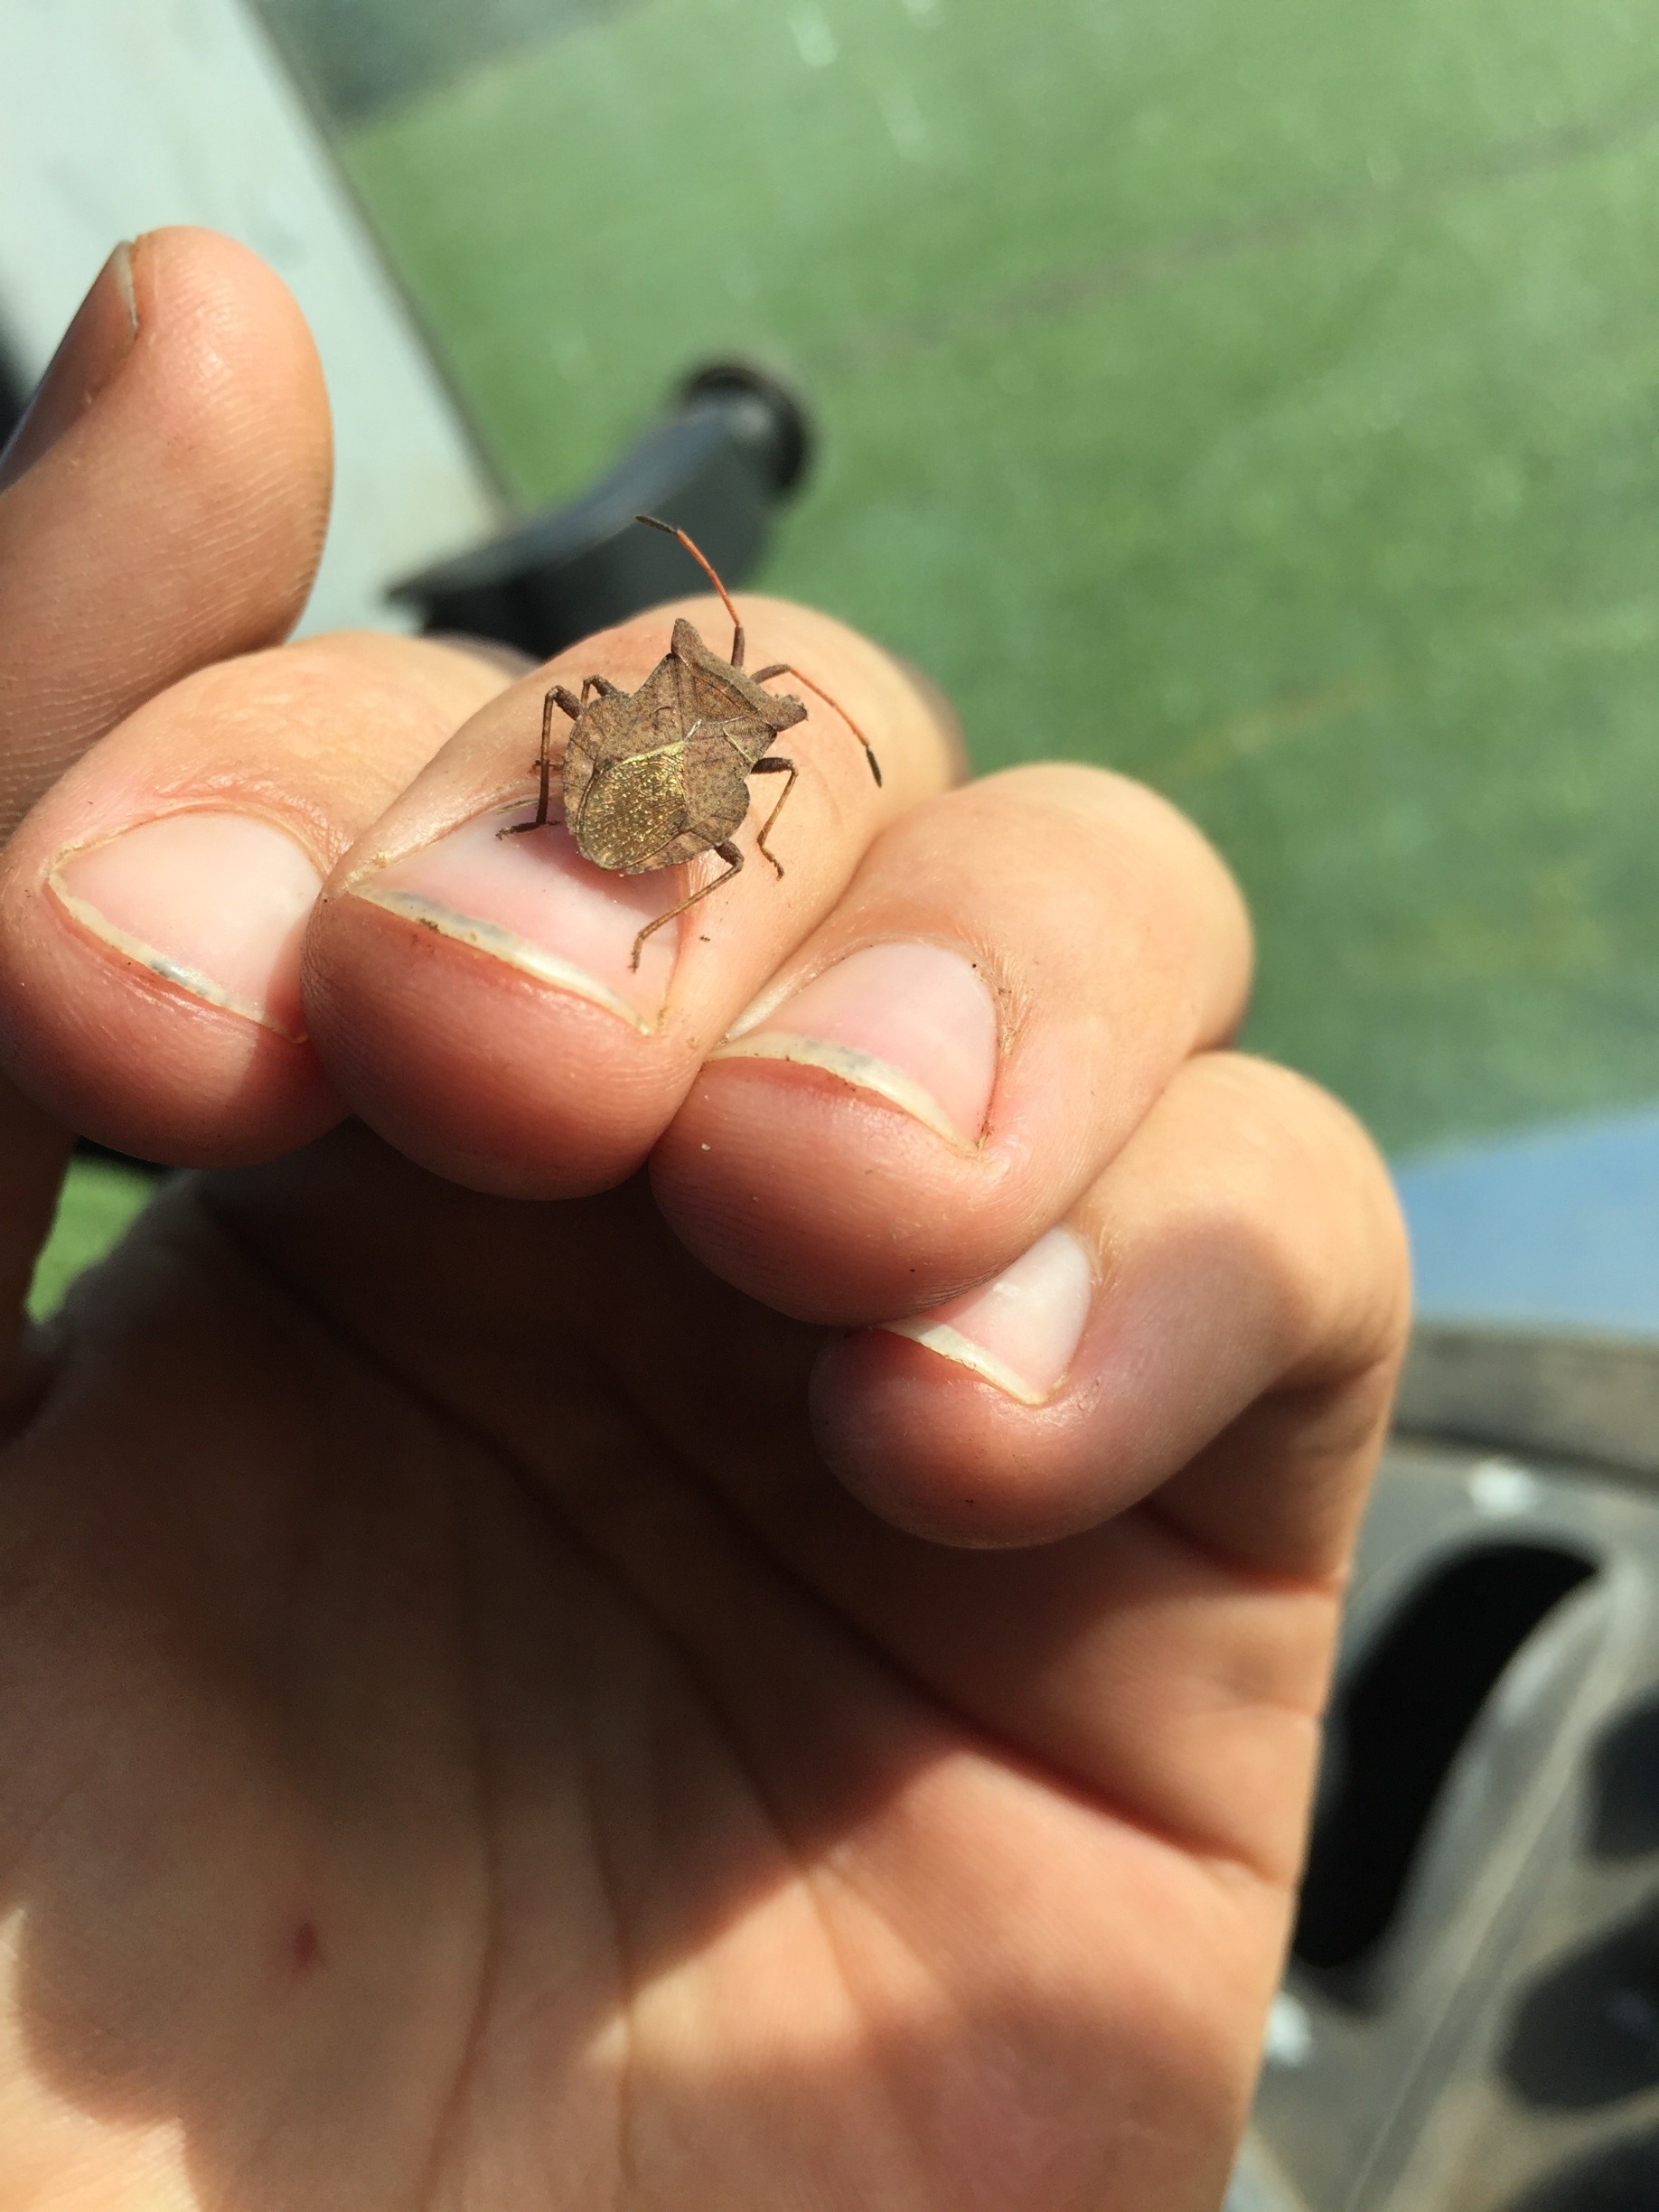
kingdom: Animalia
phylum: Arthropoda
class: Insecta
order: Hemiptera
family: Coreidae
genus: Coreus
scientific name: Coreus marginatus
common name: Skræppetæge
